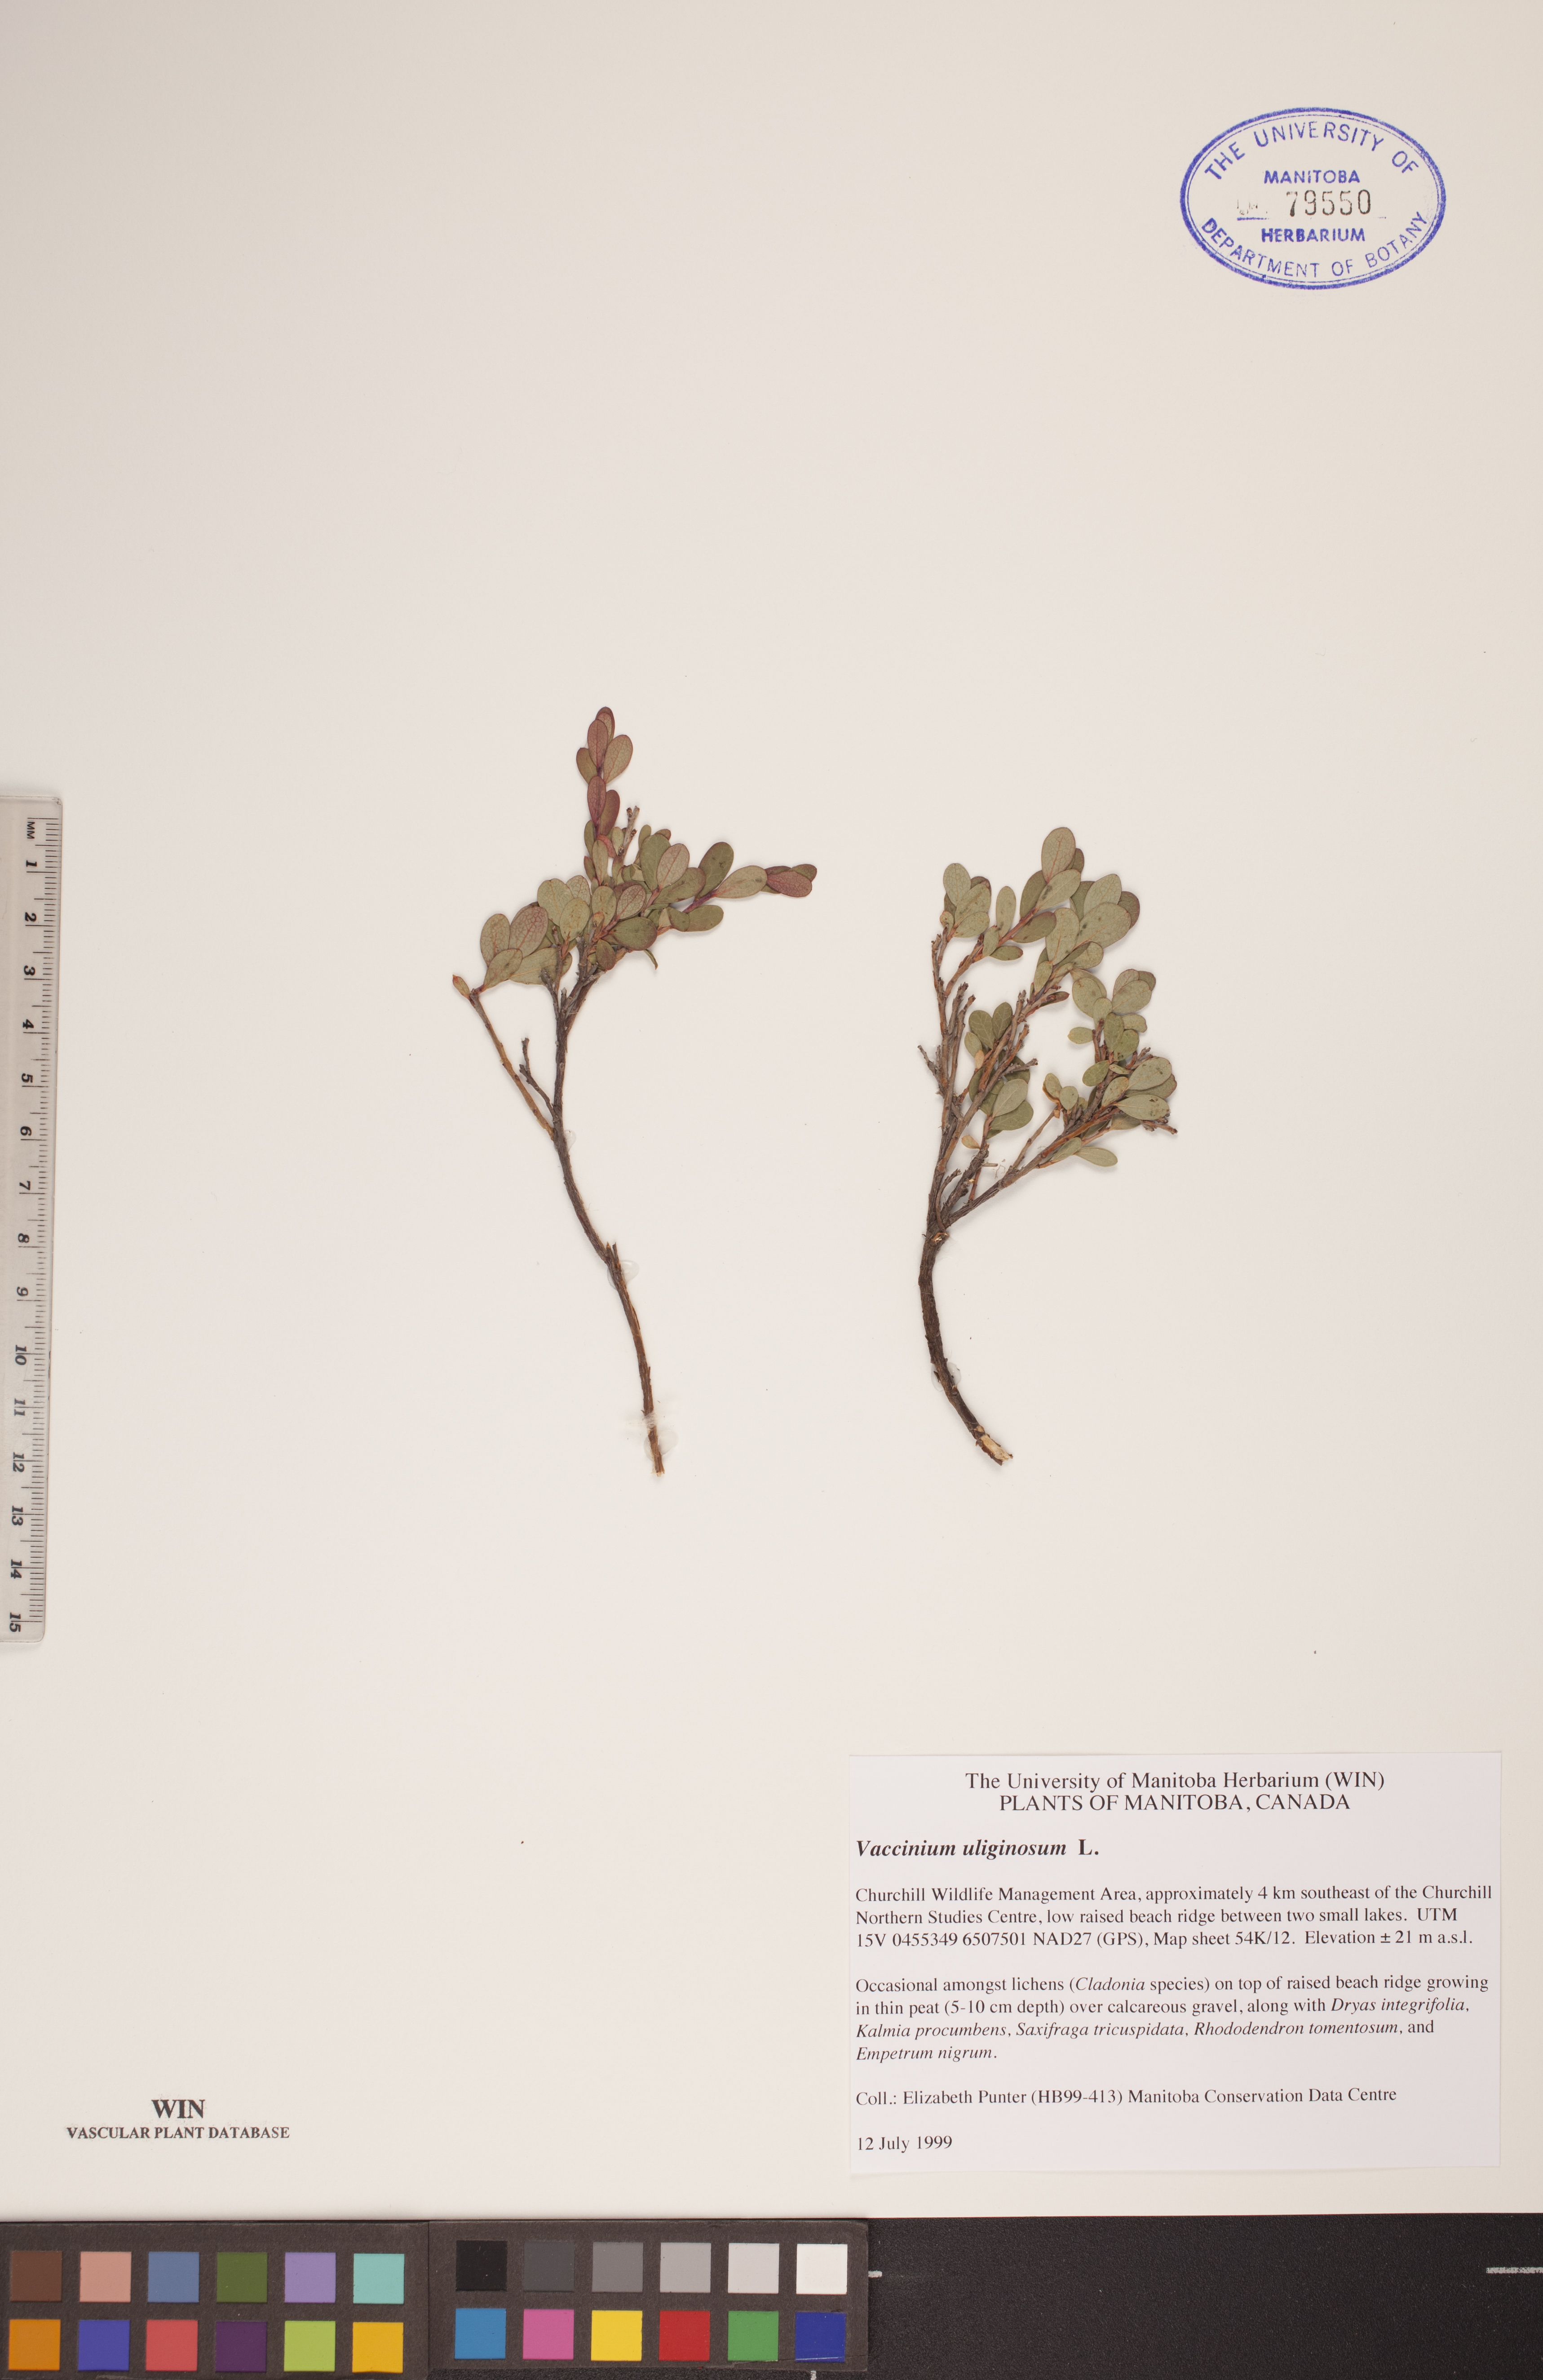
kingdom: Plantae
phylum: Tracheophyta
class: Magnoliopsida
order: Ericales
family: Ericaceae
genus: Vaccinium
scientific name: Vaccinium uliginosum
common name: Bog bilberry
